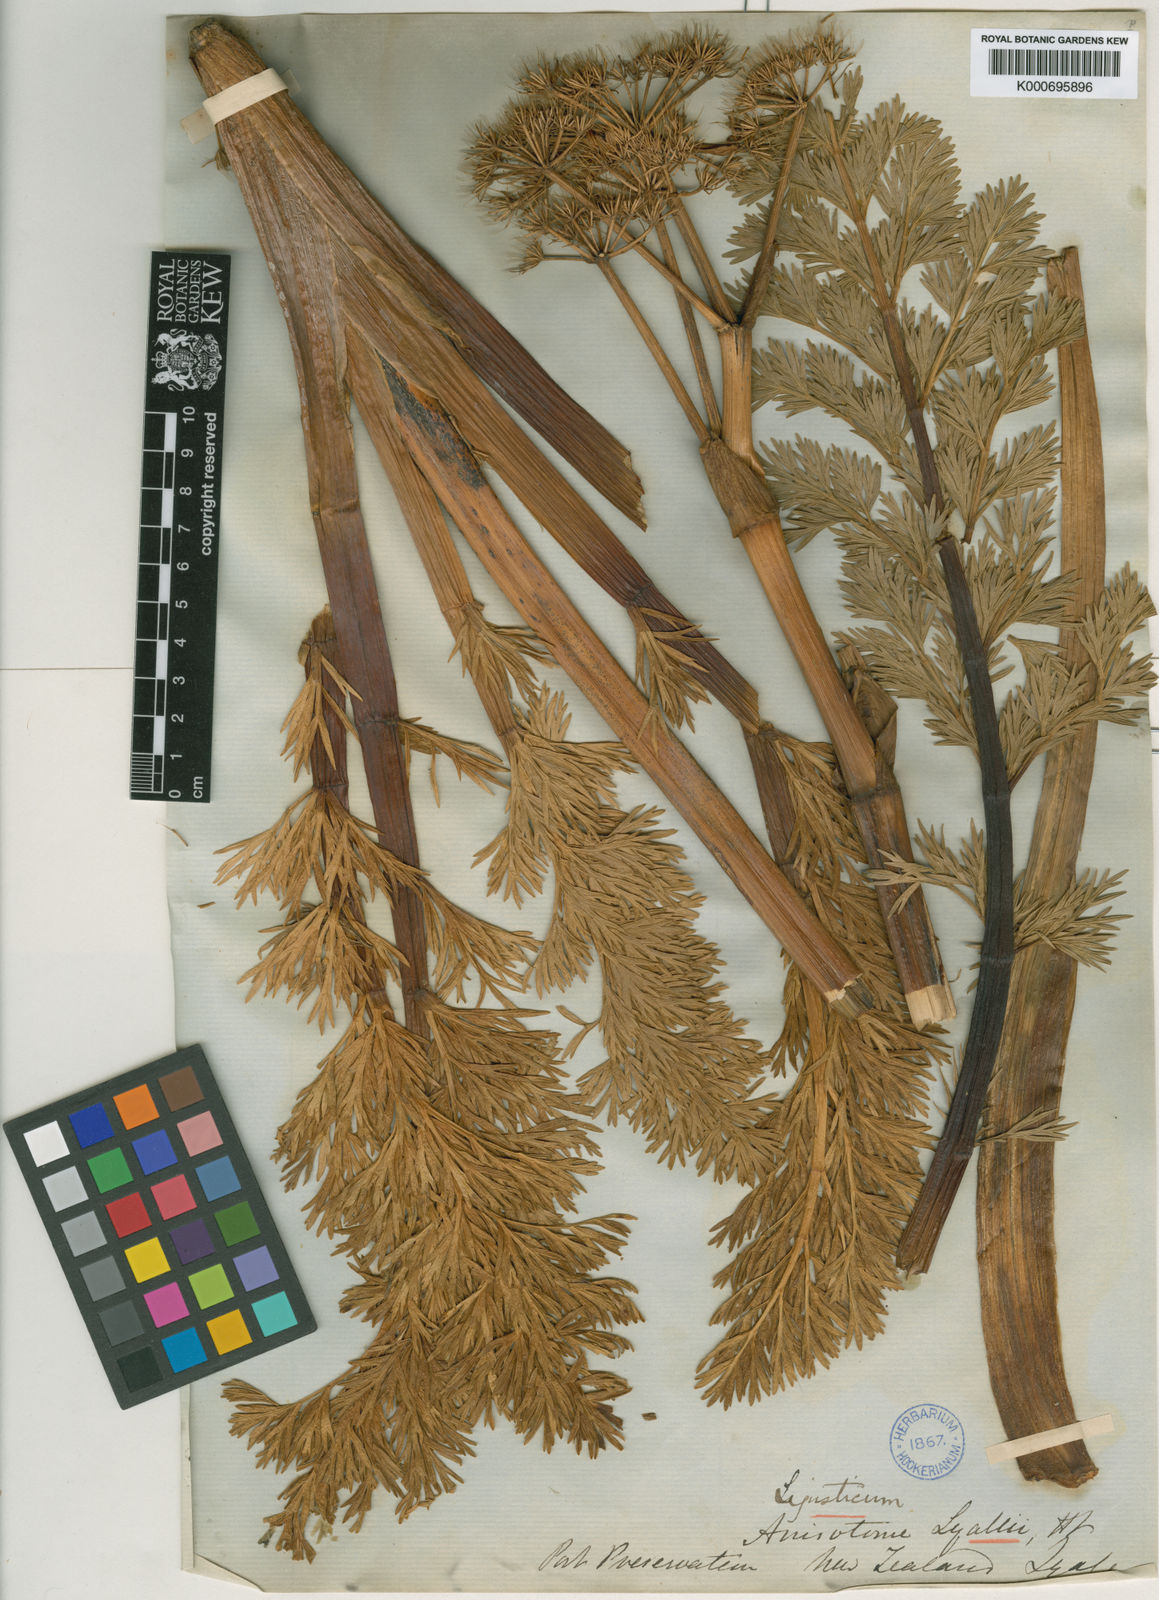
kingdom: Plantae
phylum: Tracheophyta
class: Magnoliopsida
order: Apiales
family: Apiaceae
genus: Anisotome
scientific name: Anisotome lyallii
